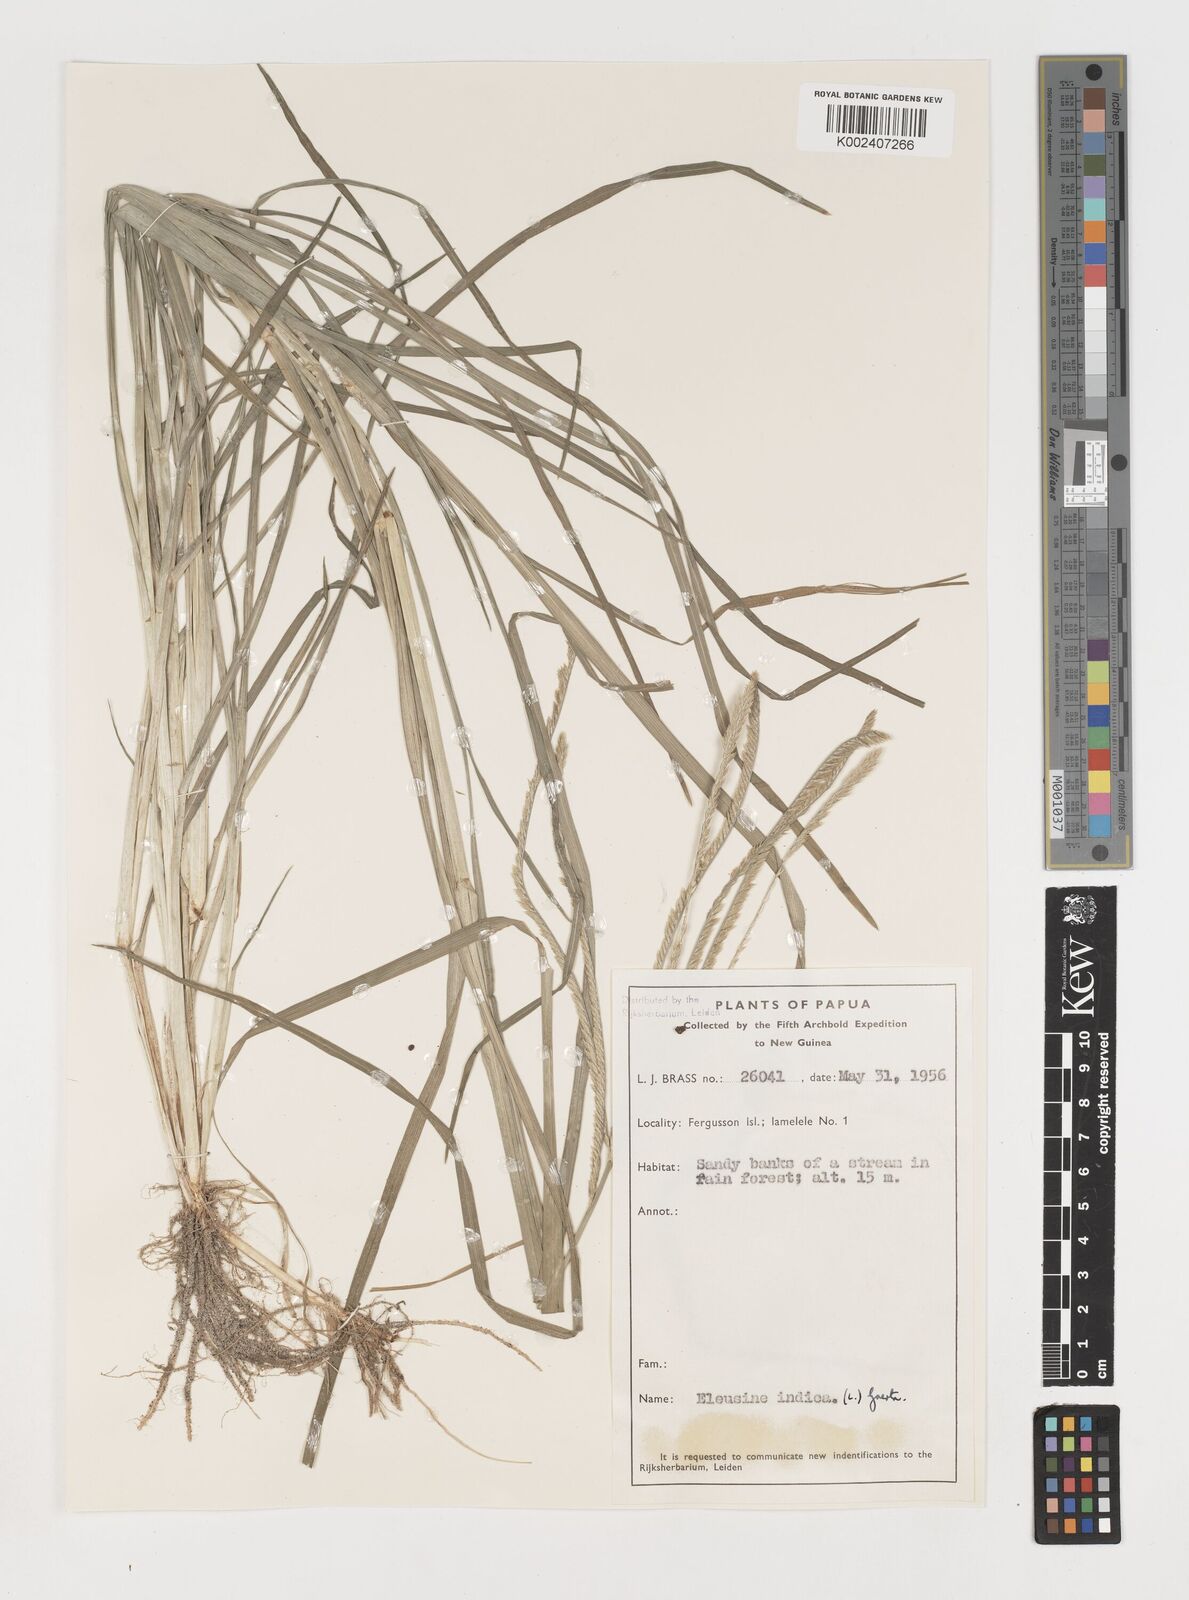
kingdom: Plantae
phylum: Tracheophyta
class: Liliopsida
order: Poales
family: Poaceae
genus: Eleusine
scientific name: Eleusine indica
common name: Yard-grass
